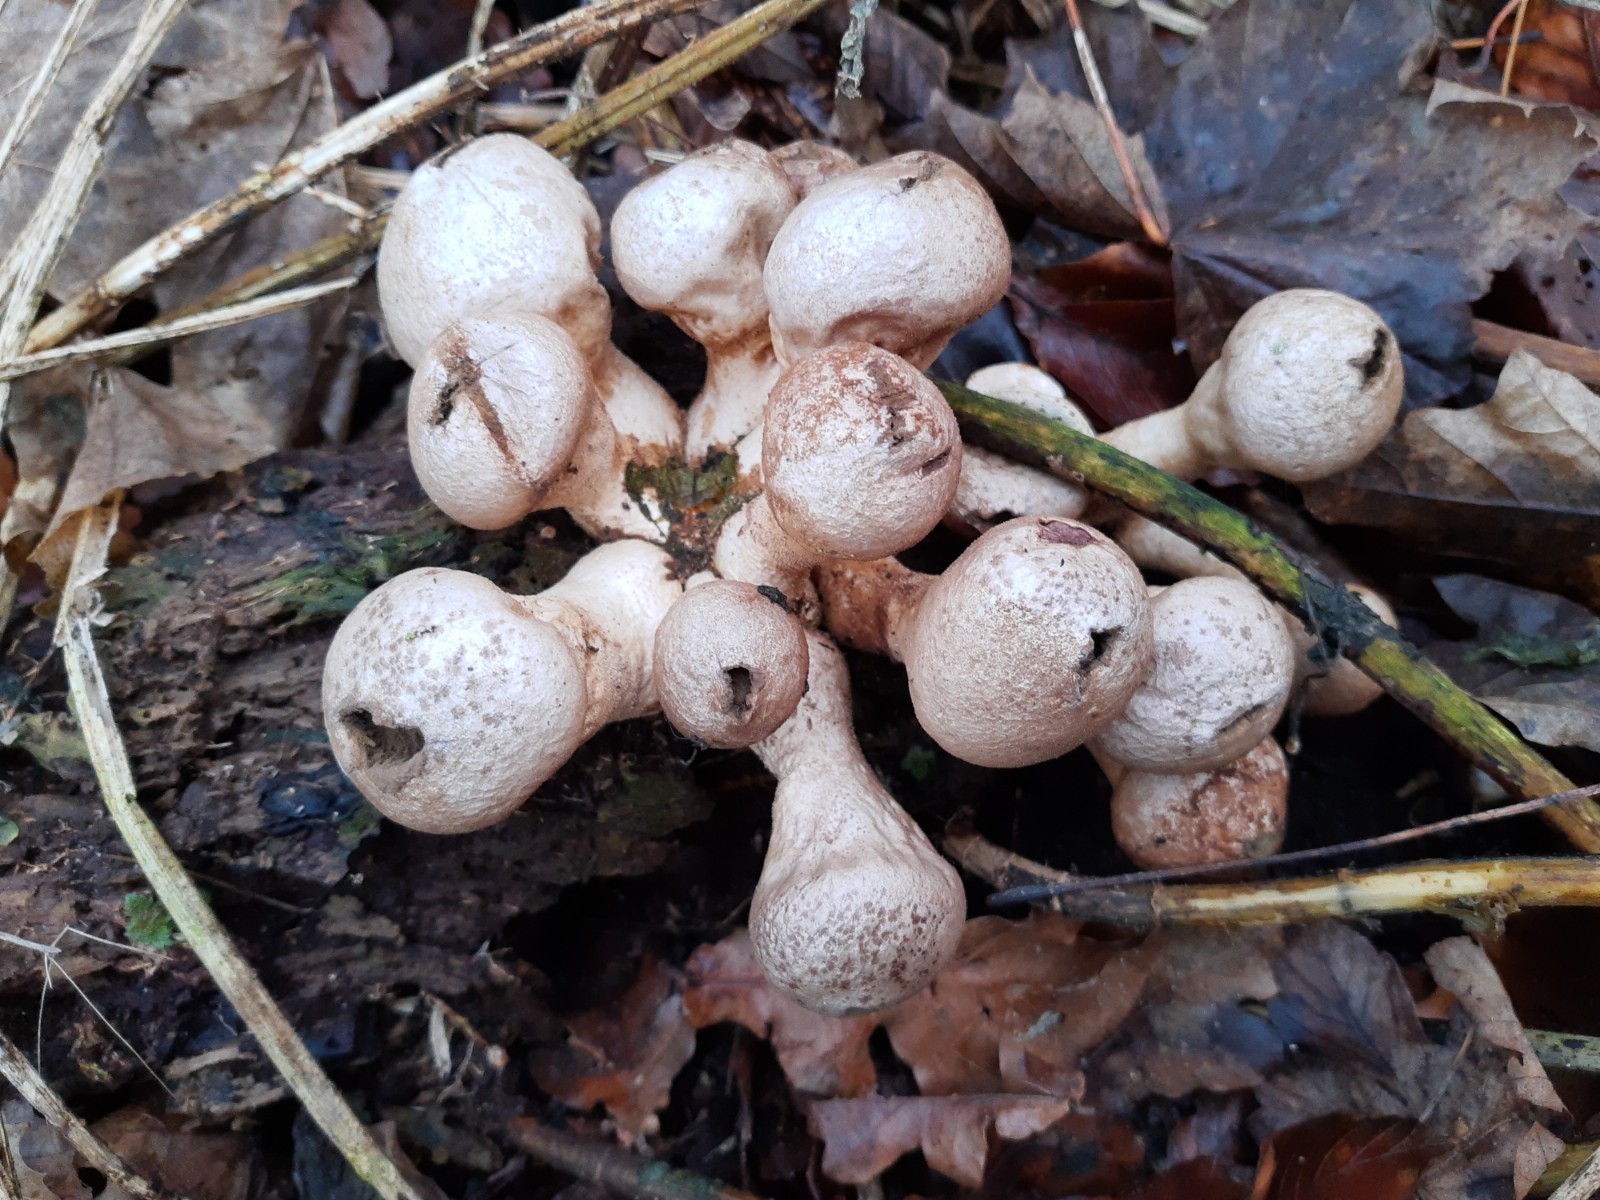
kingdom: Fungi
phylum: Basidiomycota
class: Agaricomycetes
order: Agaricales
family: Lycoperdaceae
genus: Apioperdon
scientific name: Apioperdon pyriforme
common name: pære-støvbold
